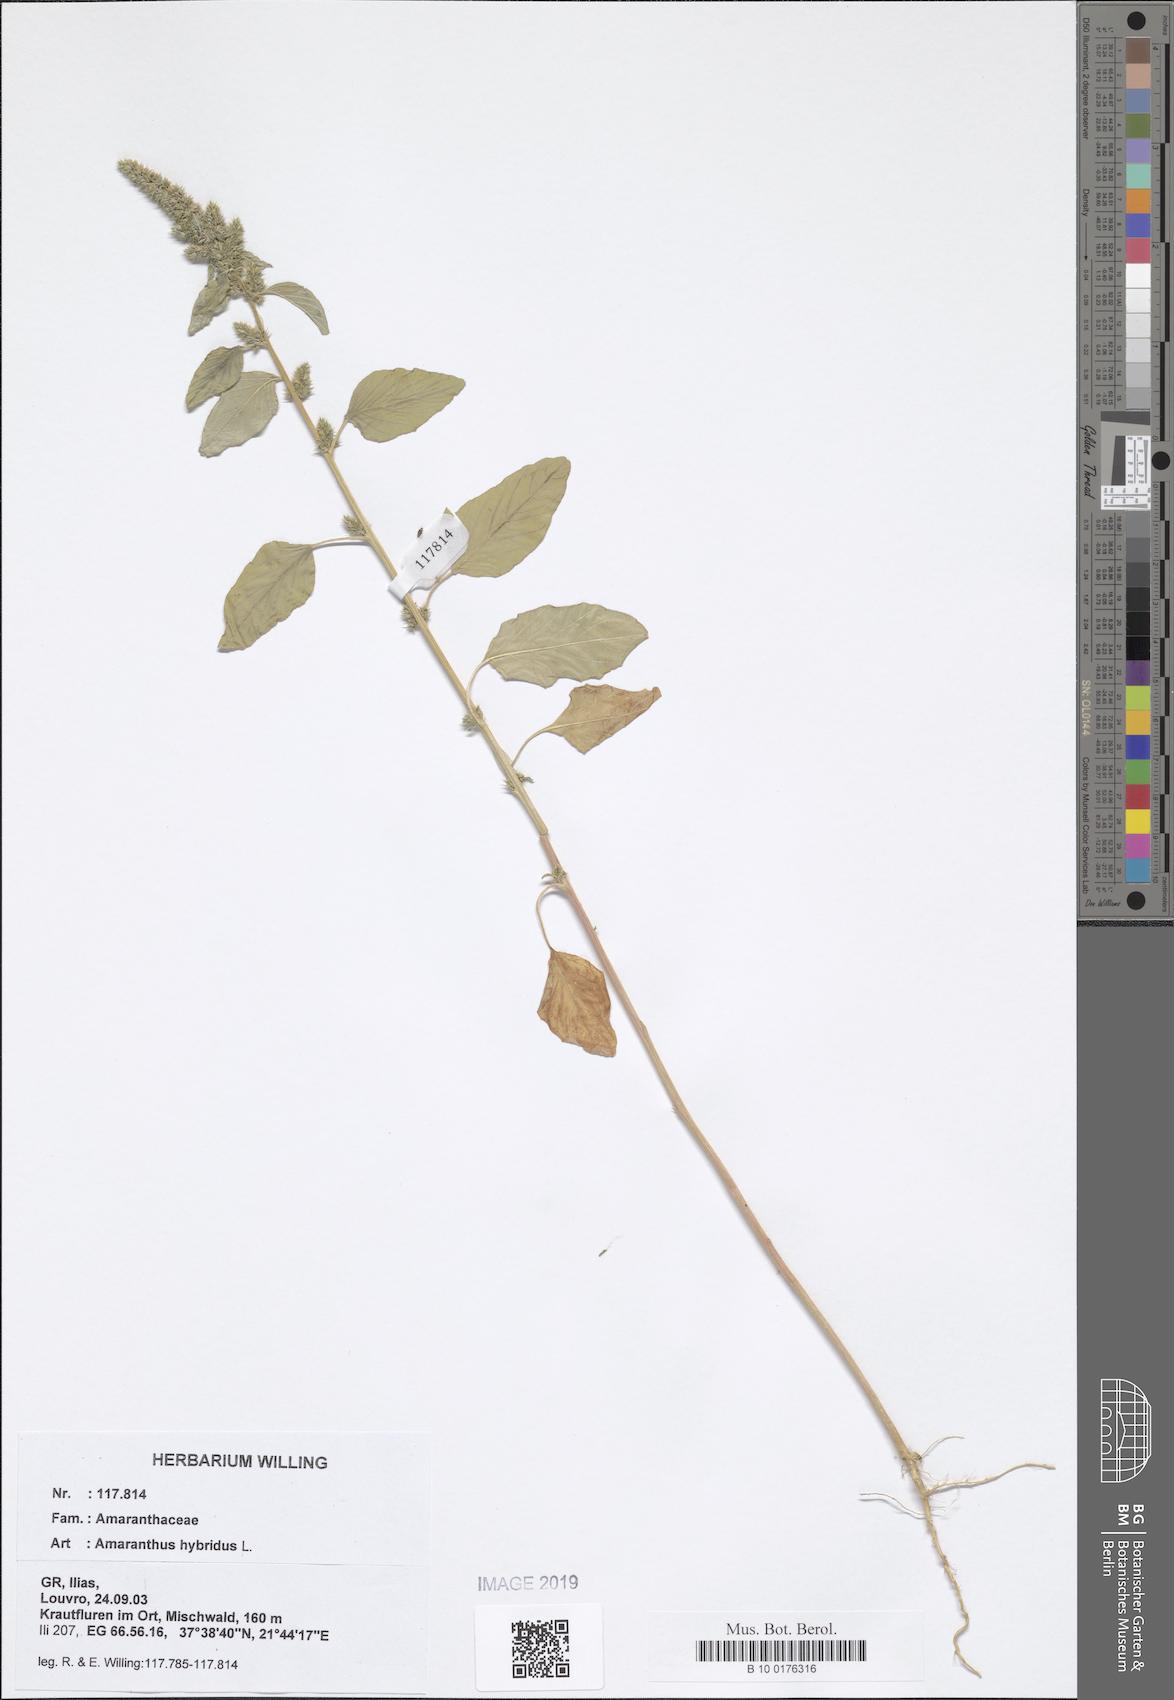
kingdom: Plantae
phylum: Tracheophyta
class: Magnoliopsida
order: Caryophyllales
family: Amaranthaceae
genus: Amaranthus
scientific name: Amaranthus hybridus
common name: Green amaranth
